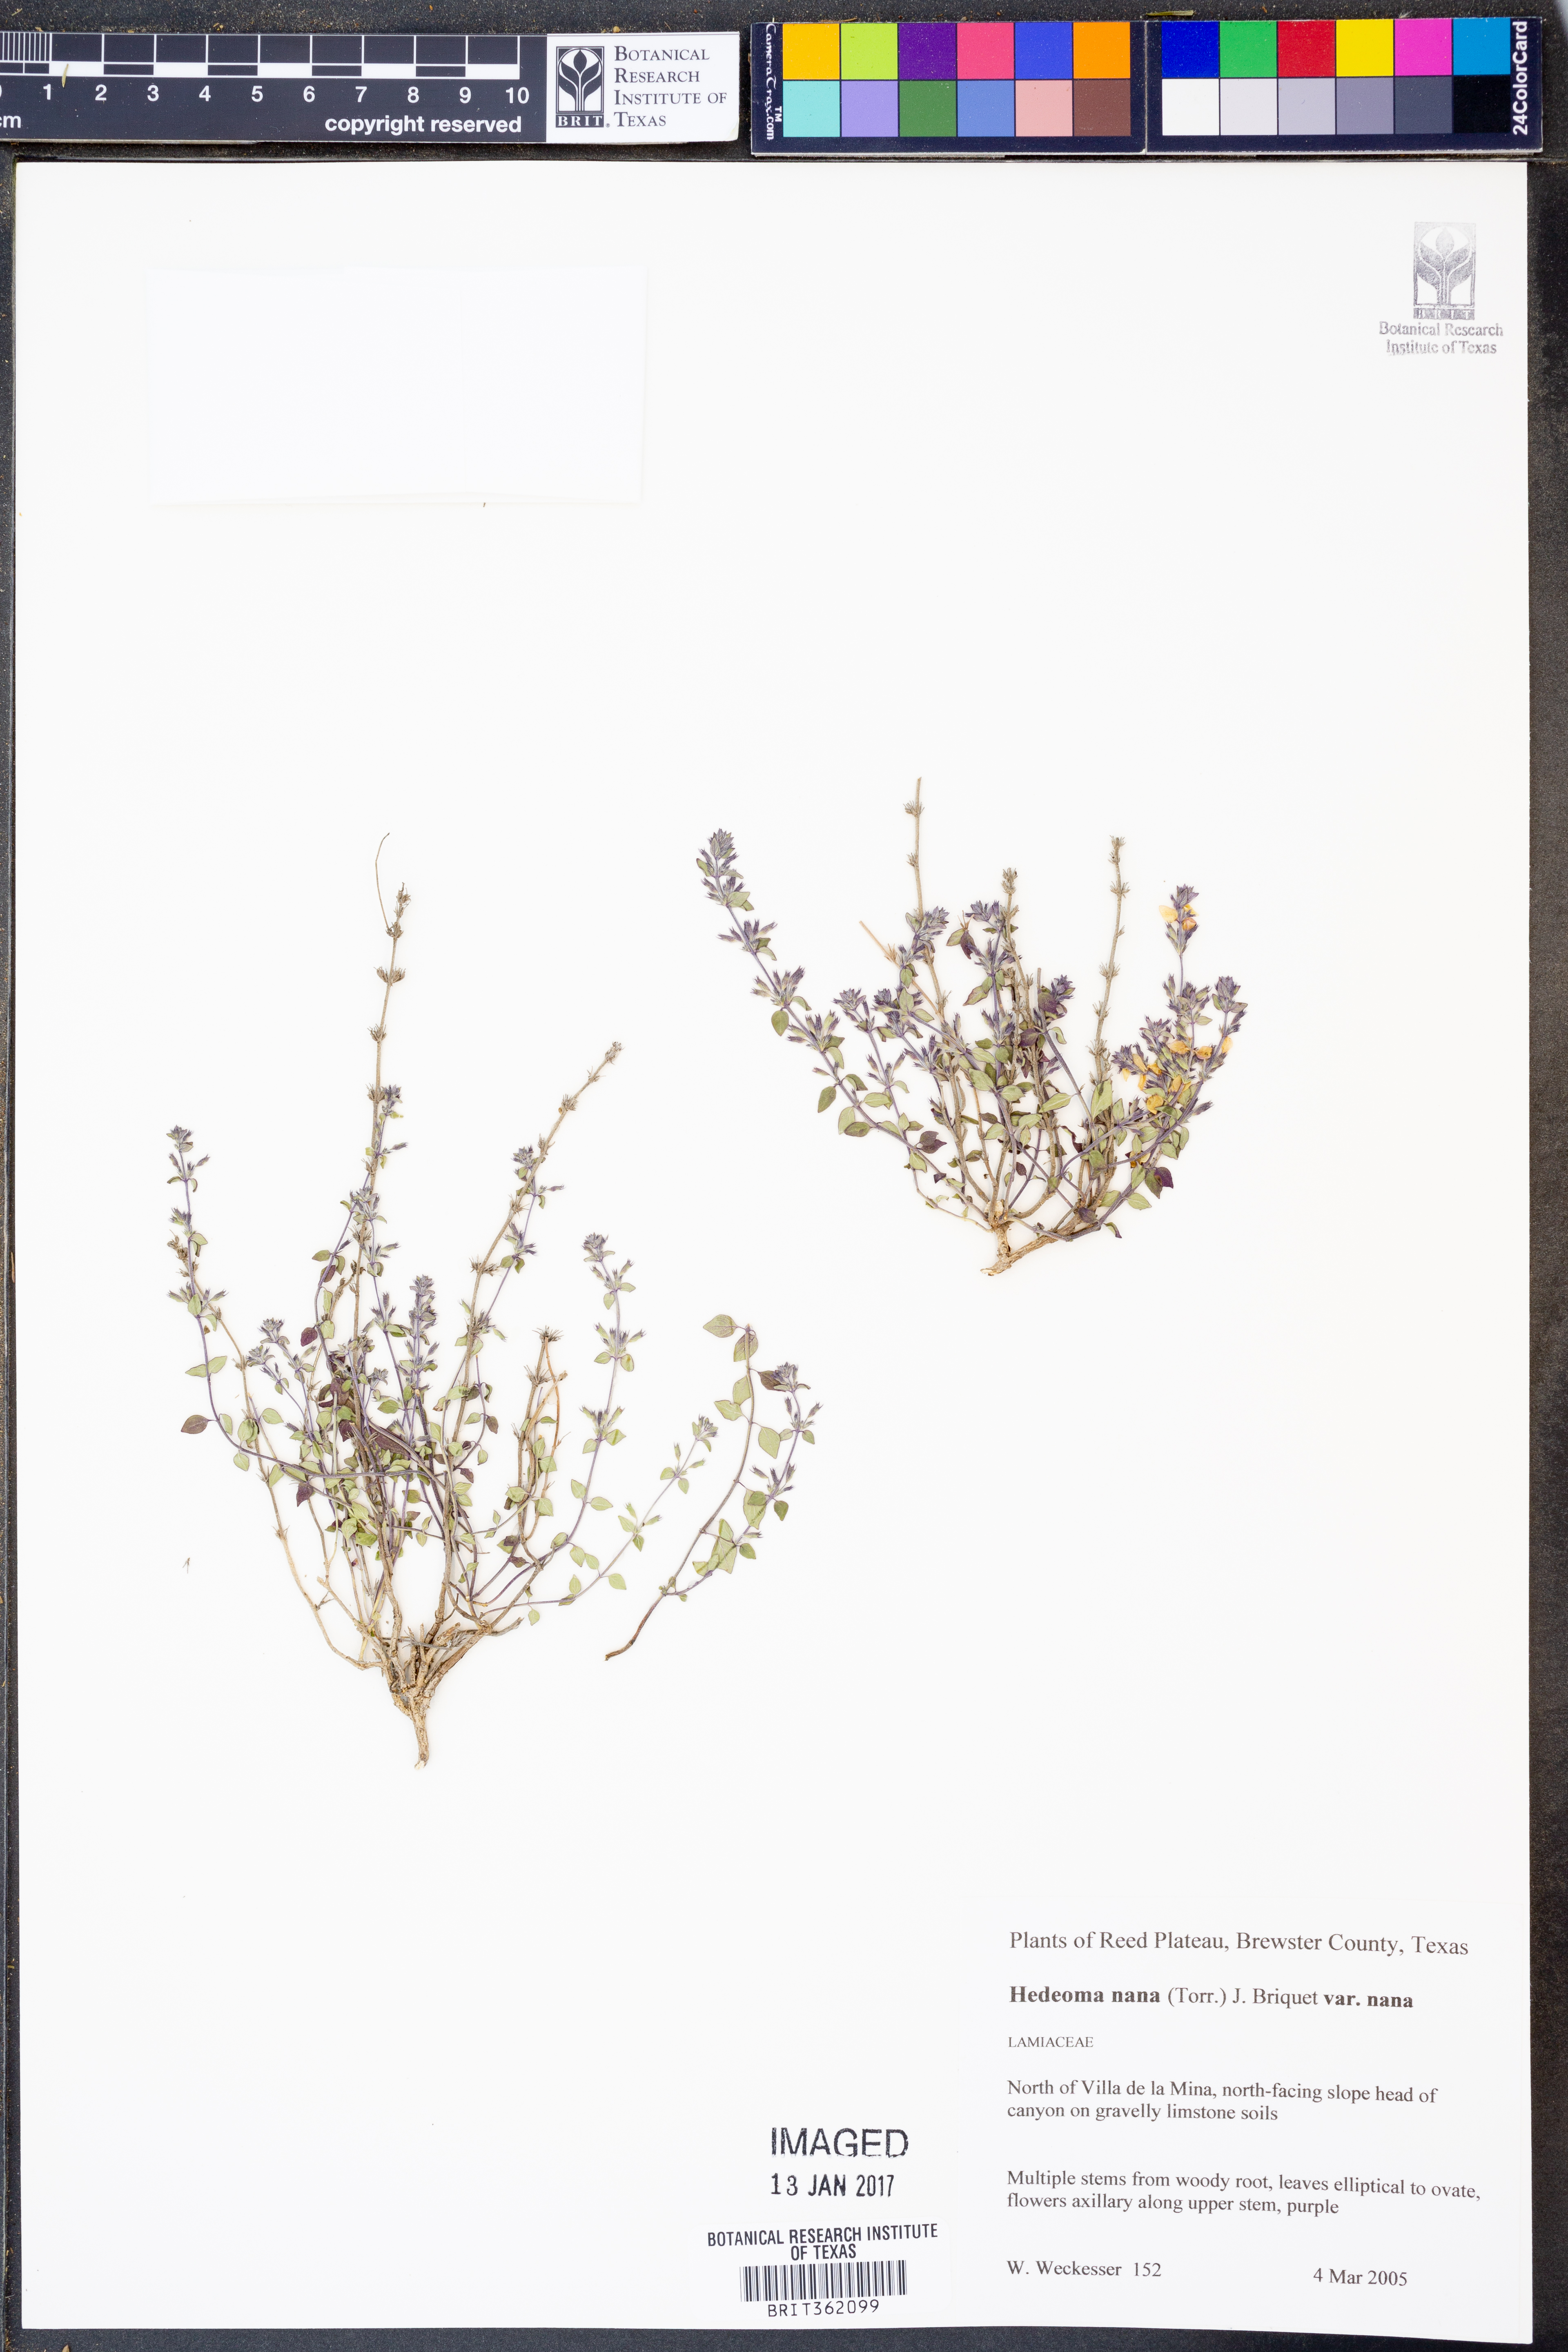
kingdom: Plantae
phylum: Tracheophyta
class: Magnoliopsida
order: Lamiales
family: Lamiaceae
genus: Hedeoma
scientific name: Hedeoma nana
